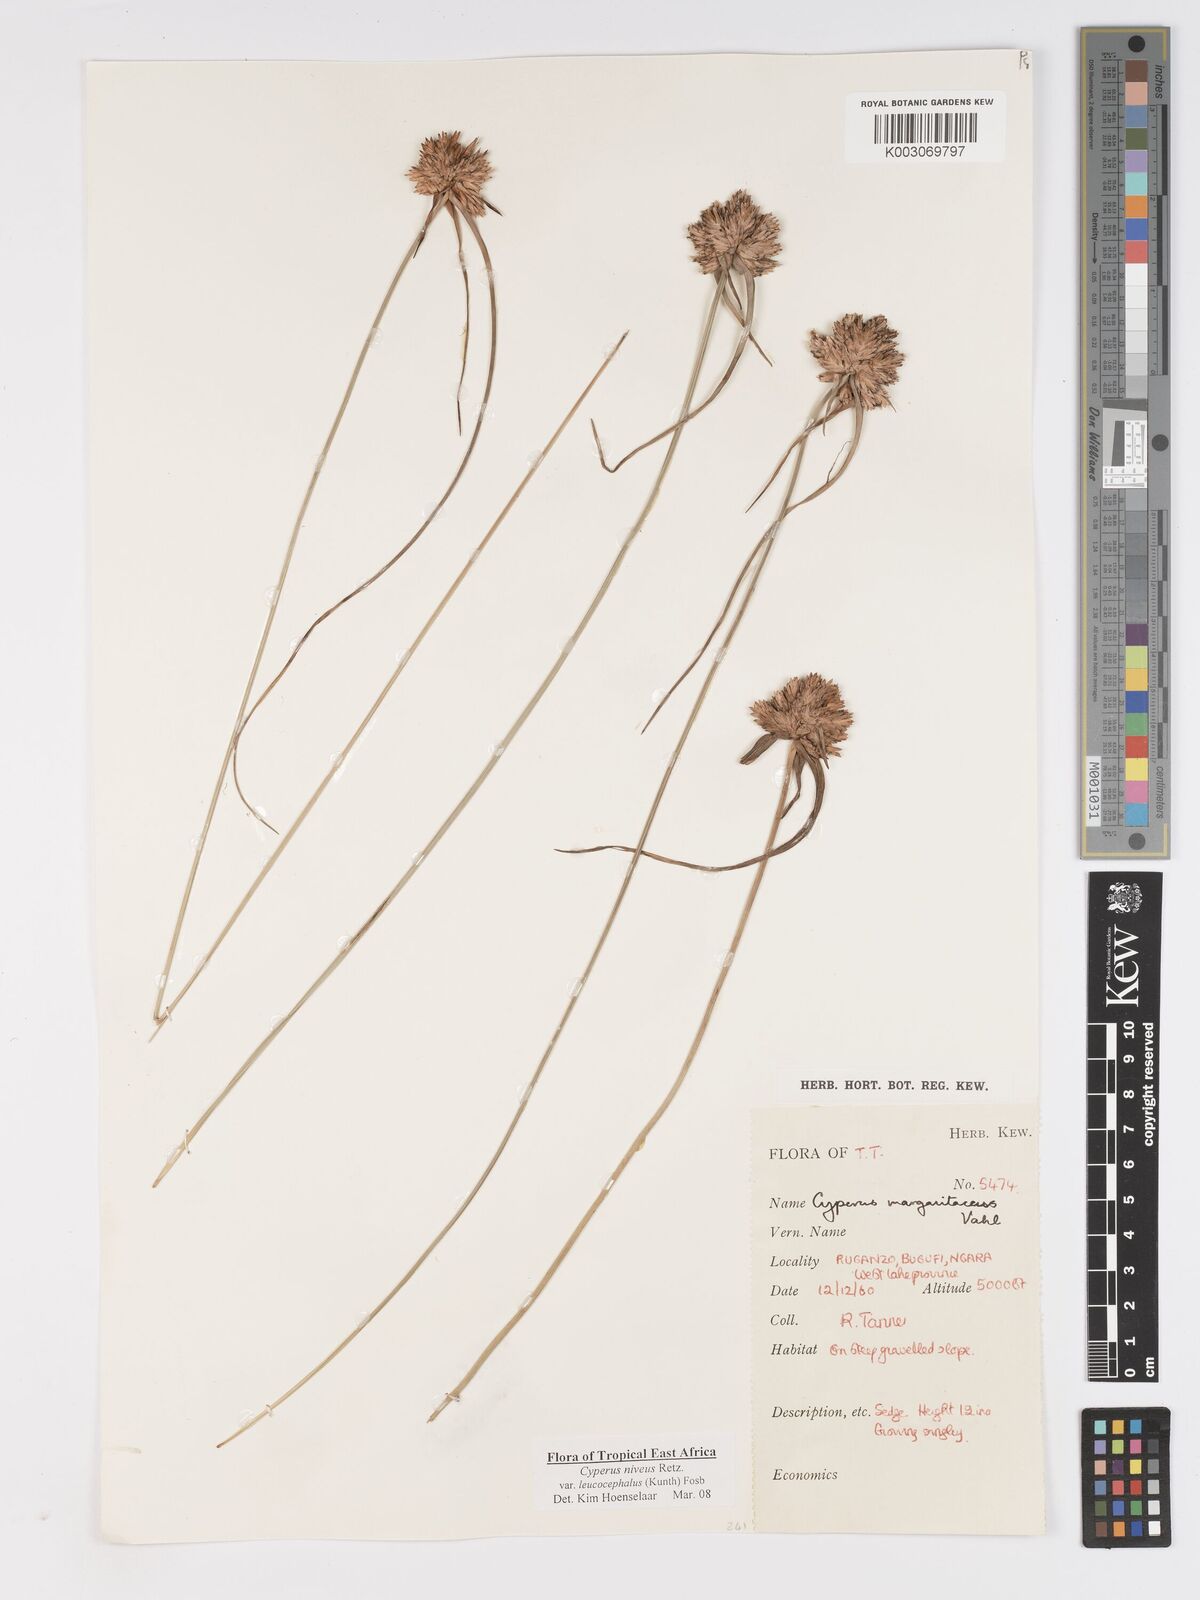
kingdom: Plantae
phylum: Tracheophyta
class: Liliopsida
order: Poales
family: Cyperaceae
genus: Cyperus
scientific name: Cyperus niveus
